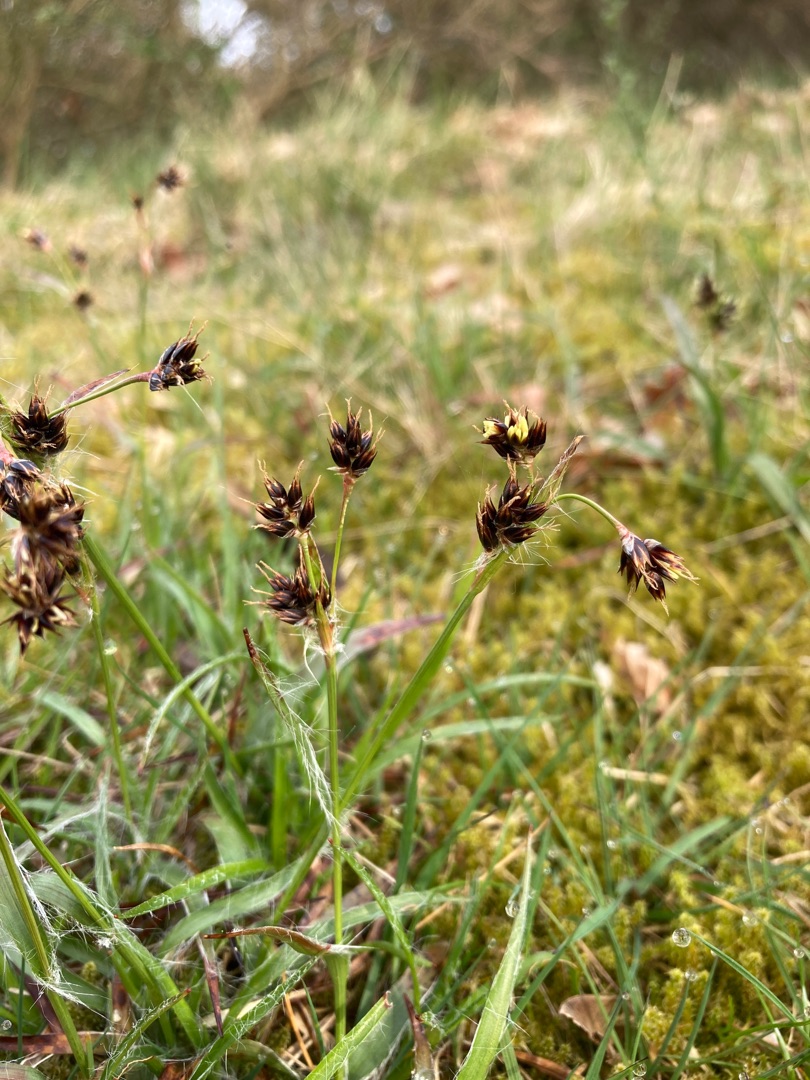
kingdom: Plantae
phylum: Tracheophyta
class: Liliopsida
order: Poales
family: Juncaceae
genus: Luzula
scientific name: Luzula campestris
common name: Mark-frytle
